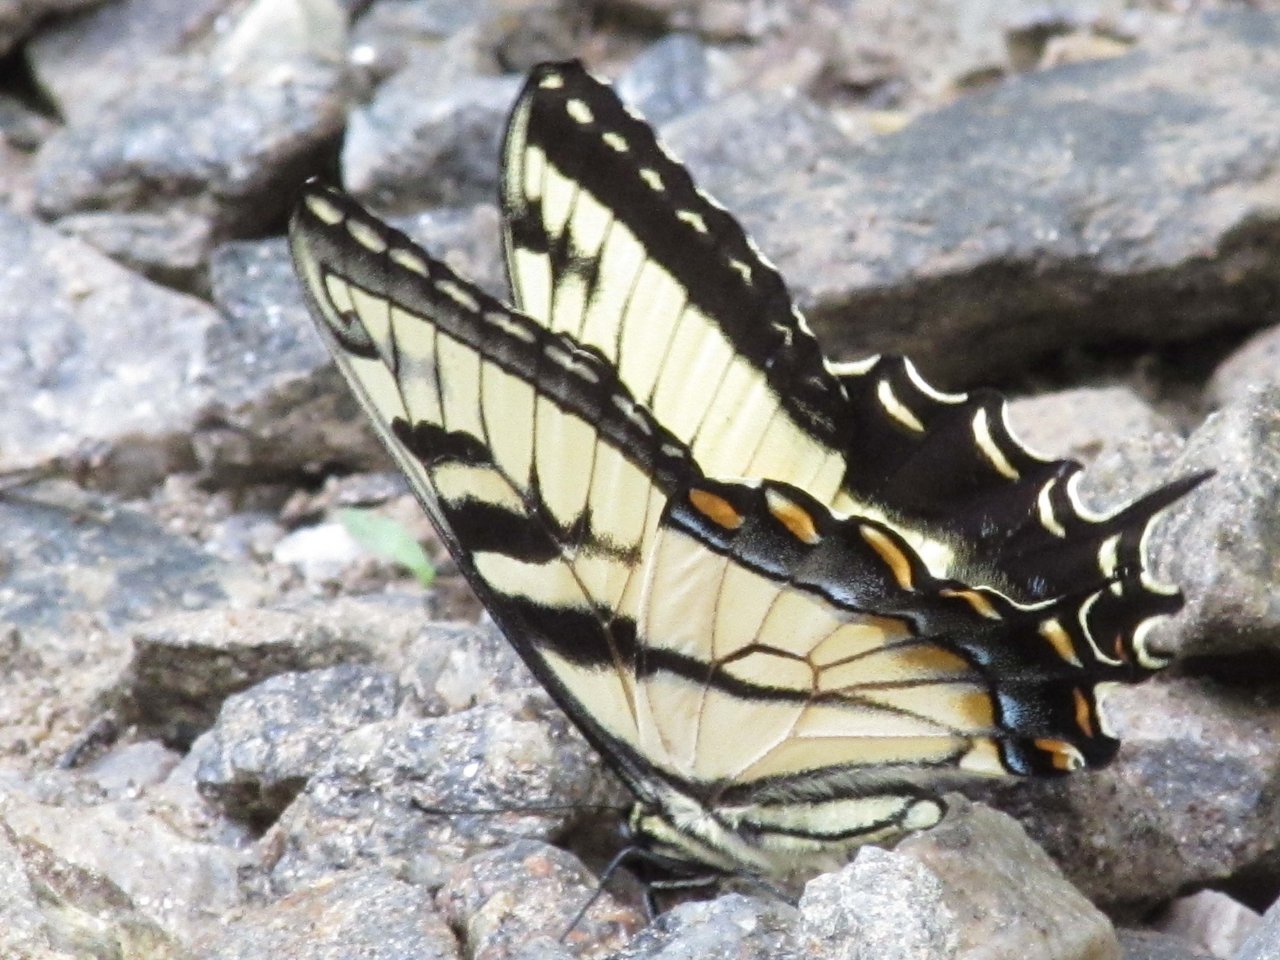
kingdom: Animalia
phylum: Arthropoda
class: Insecta
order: Lepidoptera
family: Papilionidae
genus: Pterourus
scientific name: Pterourus glaucus
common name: Eastern Tiger Swallowtail
